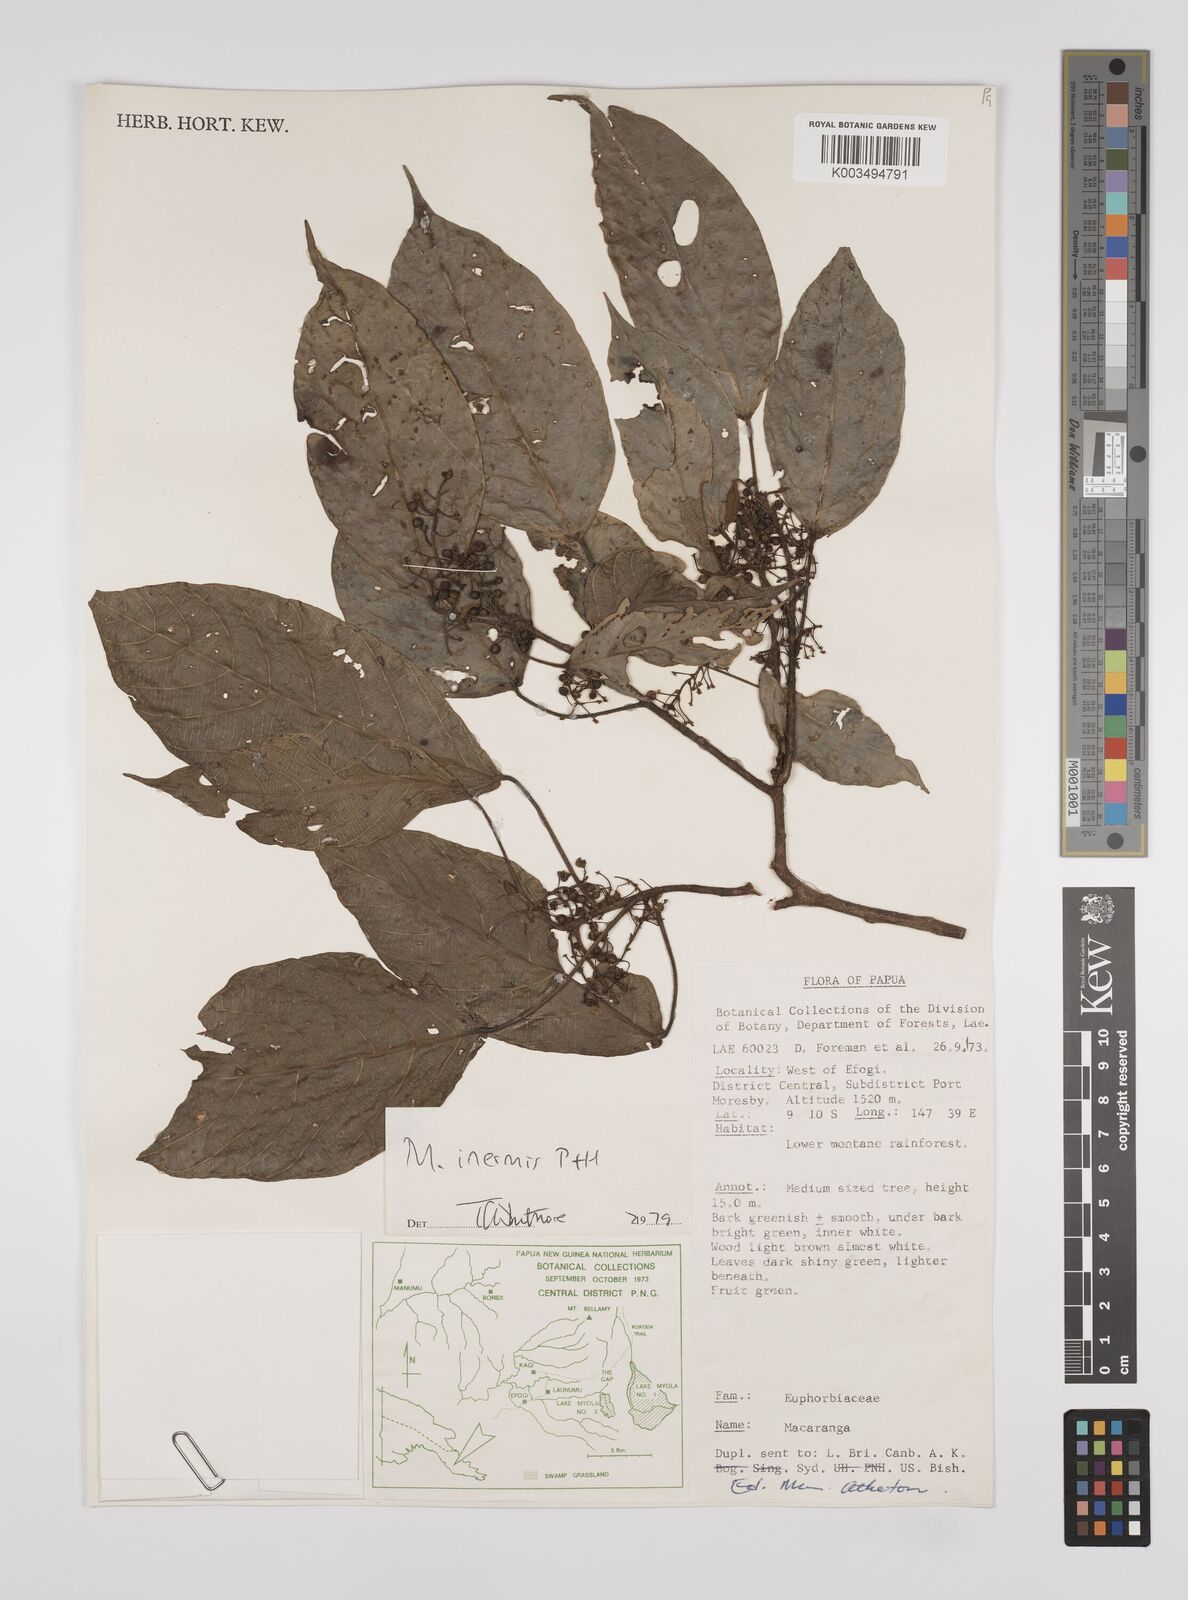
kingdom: Plantae
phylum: Tracheophyta
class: Magnoliopsida
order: Malpighiales
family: Euphorbiaceae
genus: Macaranga
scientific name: Macaranga inermis
